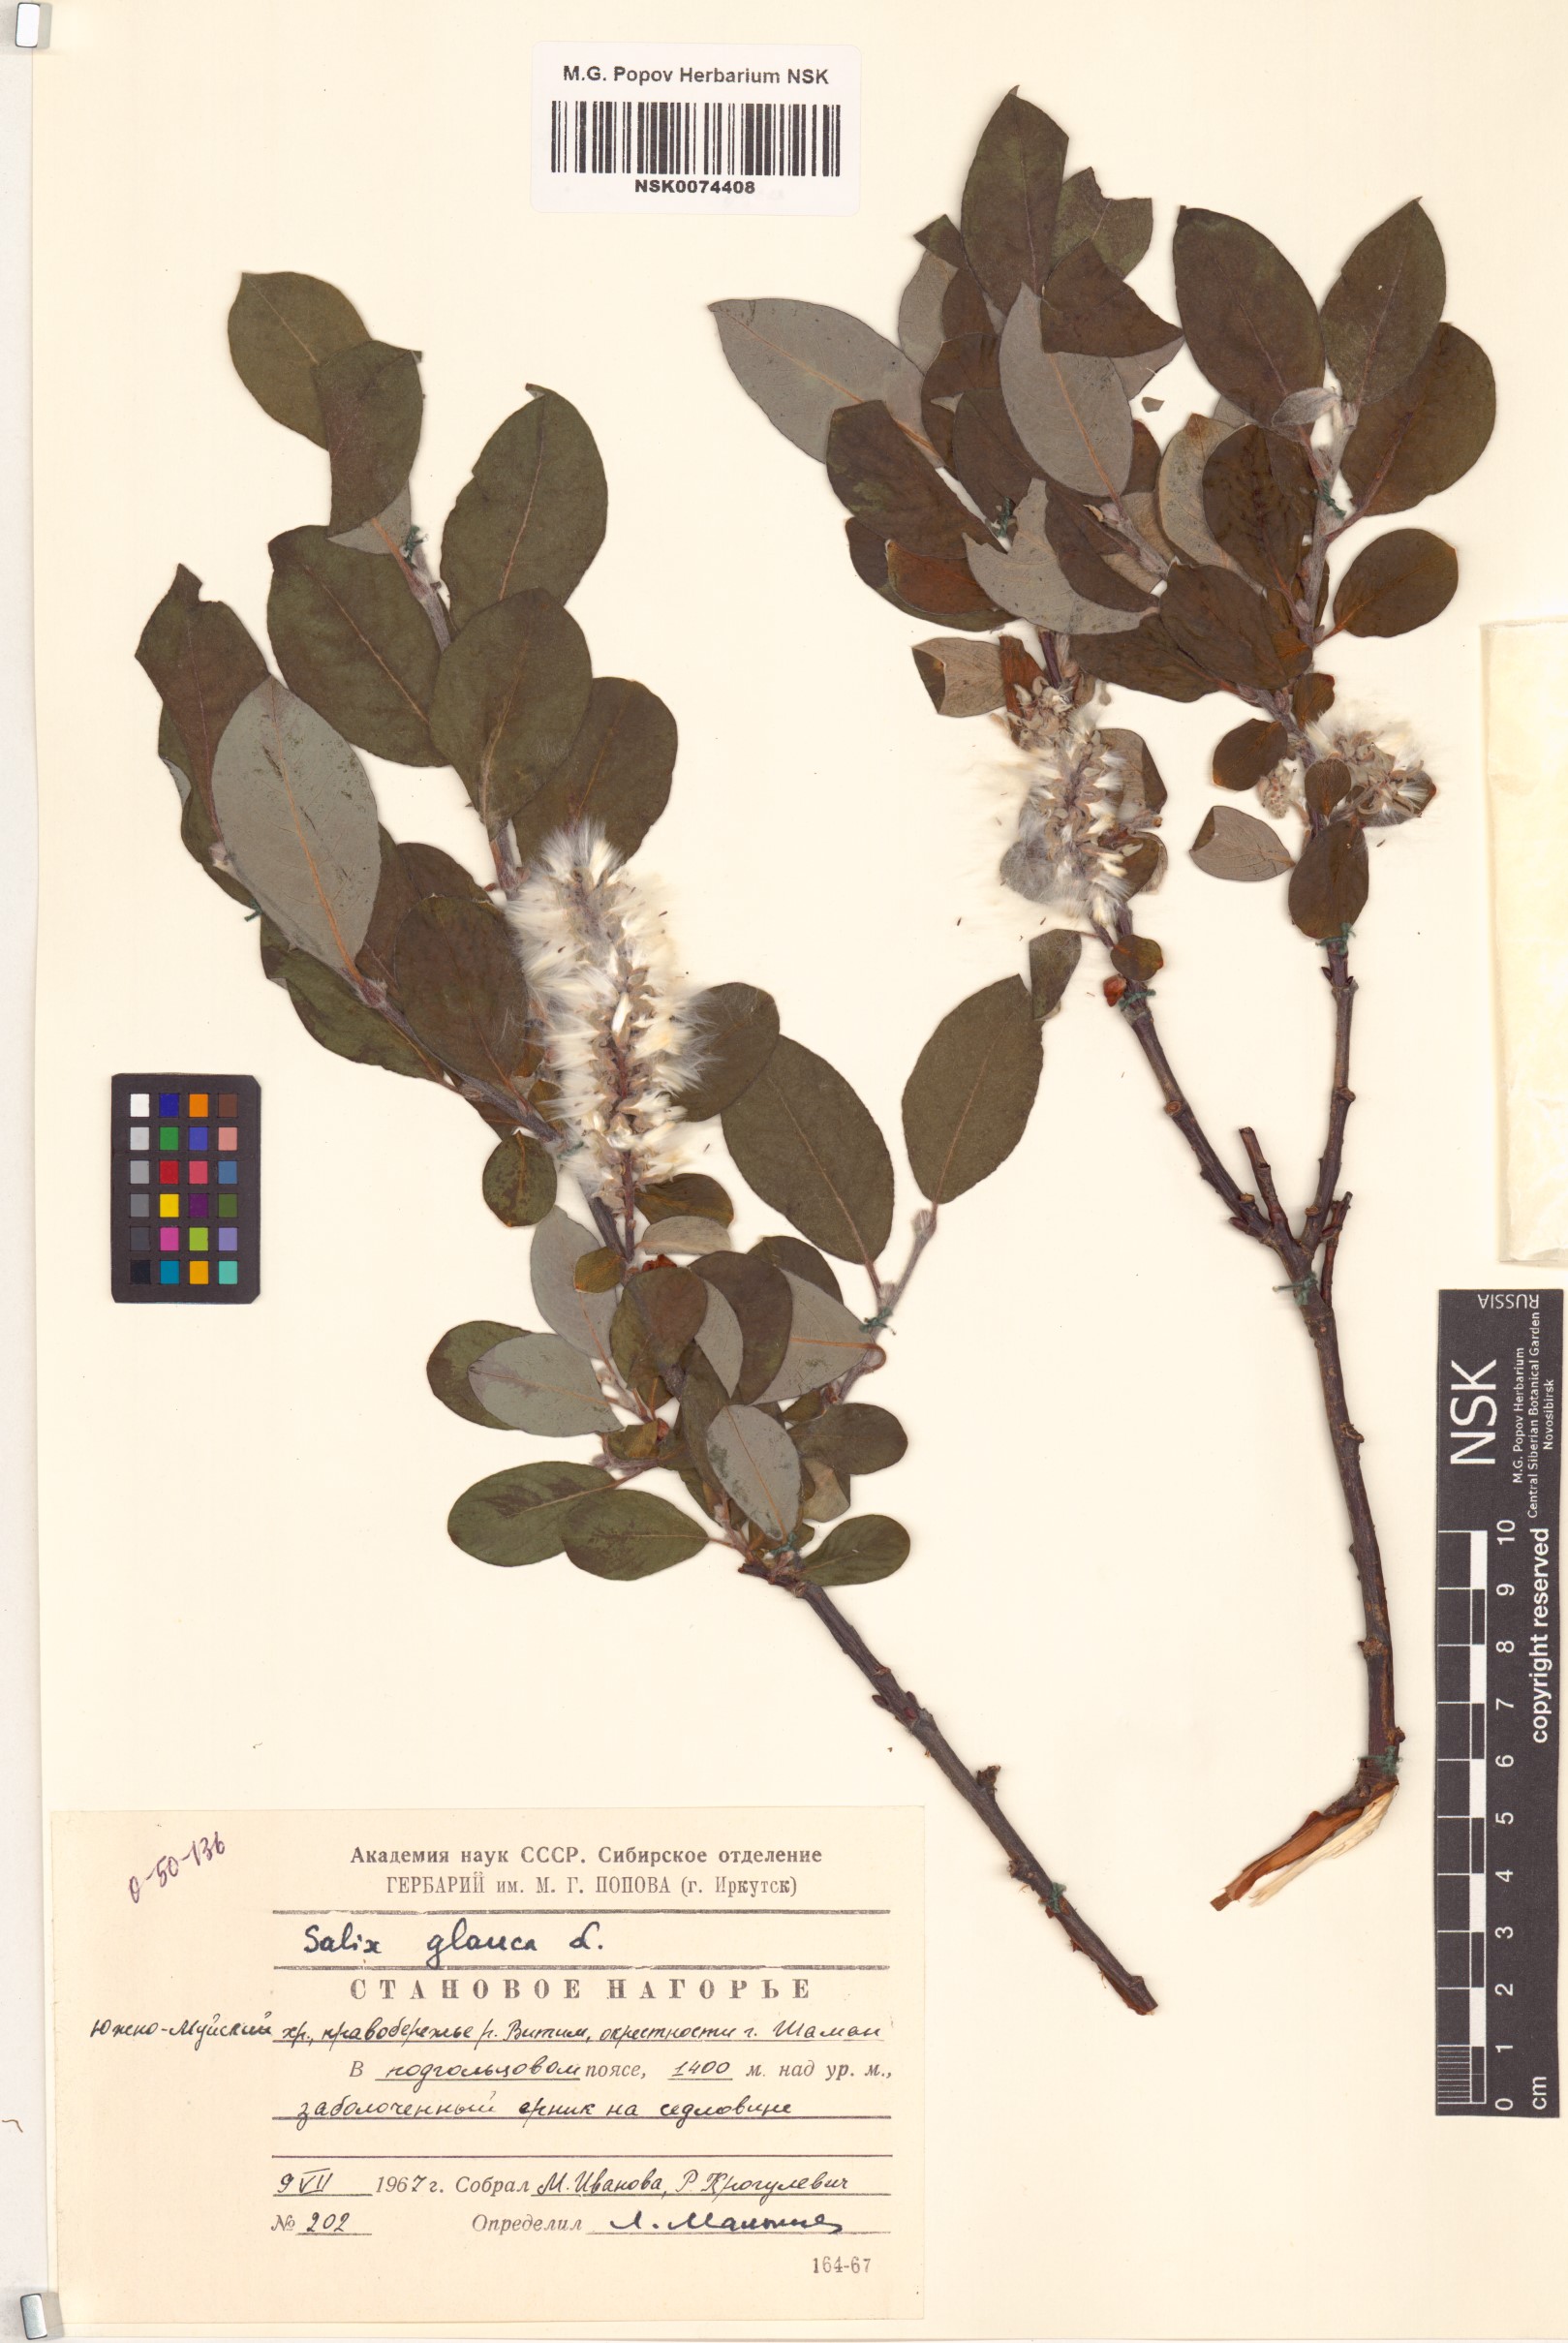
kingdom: Plantae
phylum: Tracheophyta
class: Magnoliopsida
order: Malpighiales
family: Salicaceae
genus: Salix
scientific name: Salix glauca
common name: Glaucous willow
